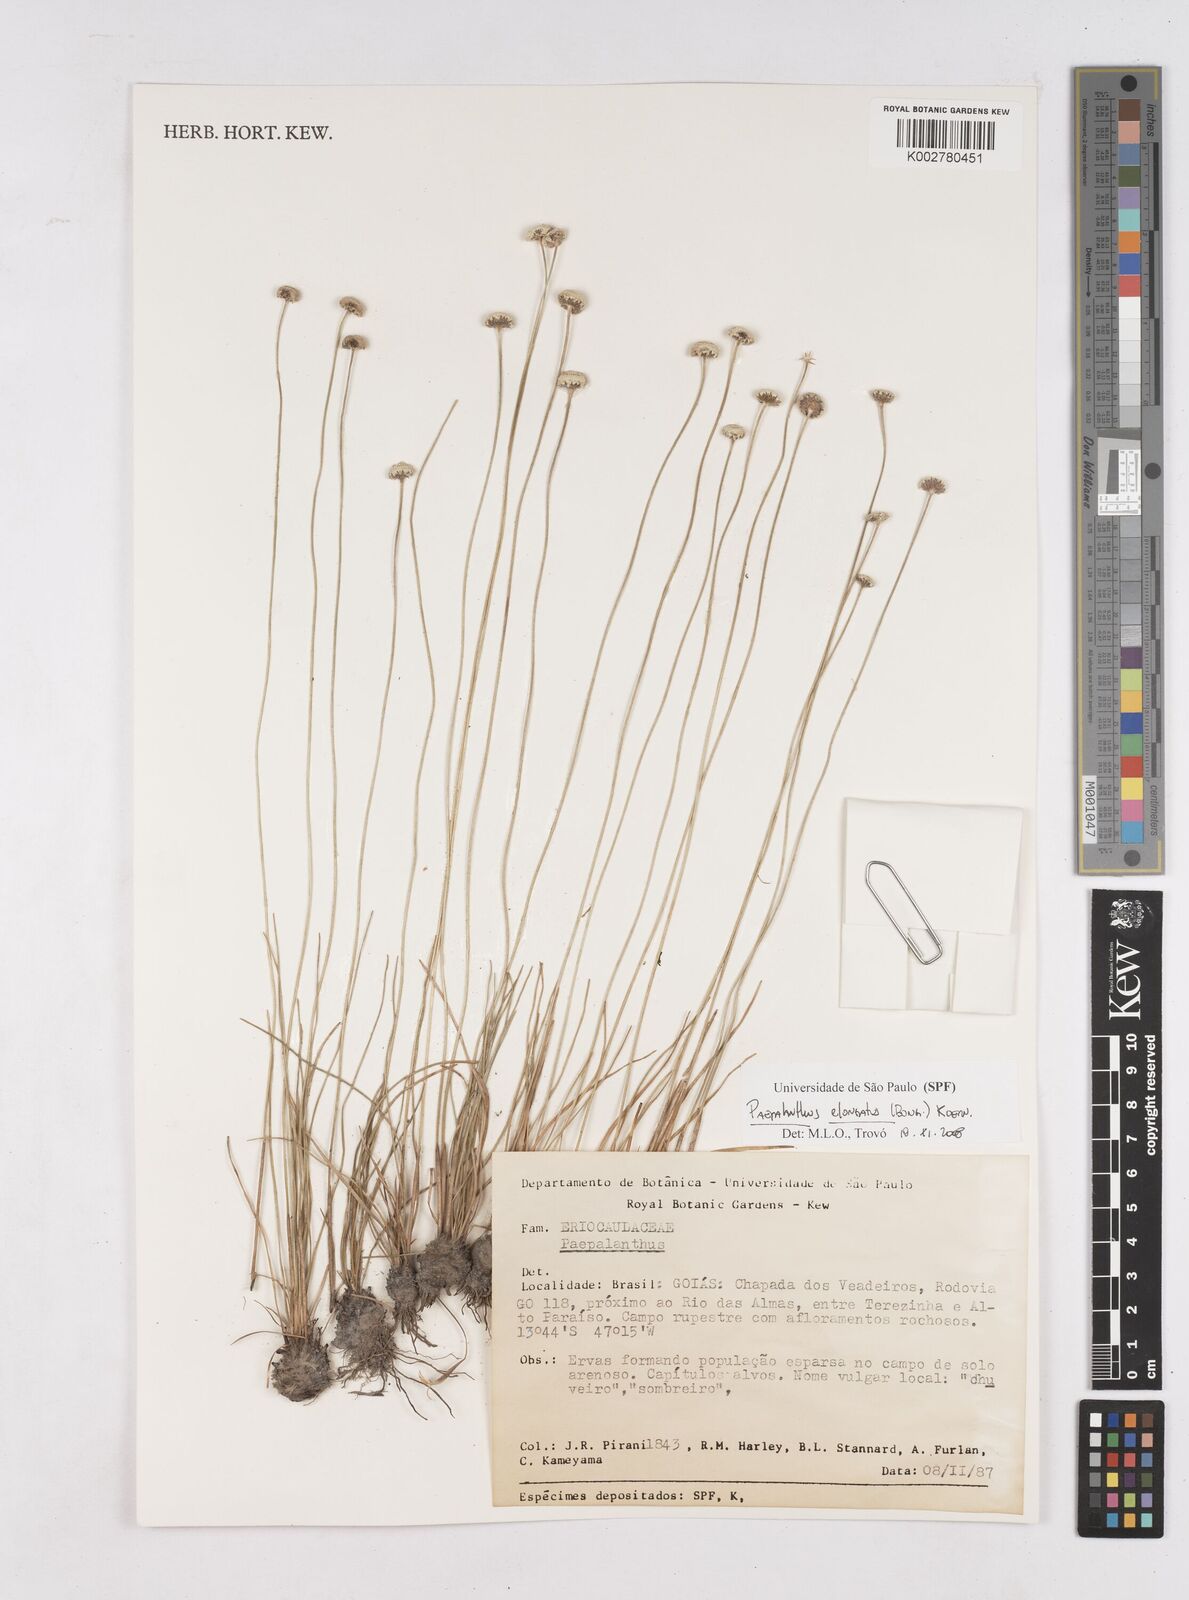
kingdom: Plantae
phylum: Tracheophyta
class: Liliopsida
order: Poales
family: Eriocaulaceae
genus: Paepalanthus
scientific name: Paepalanthus elongatus
